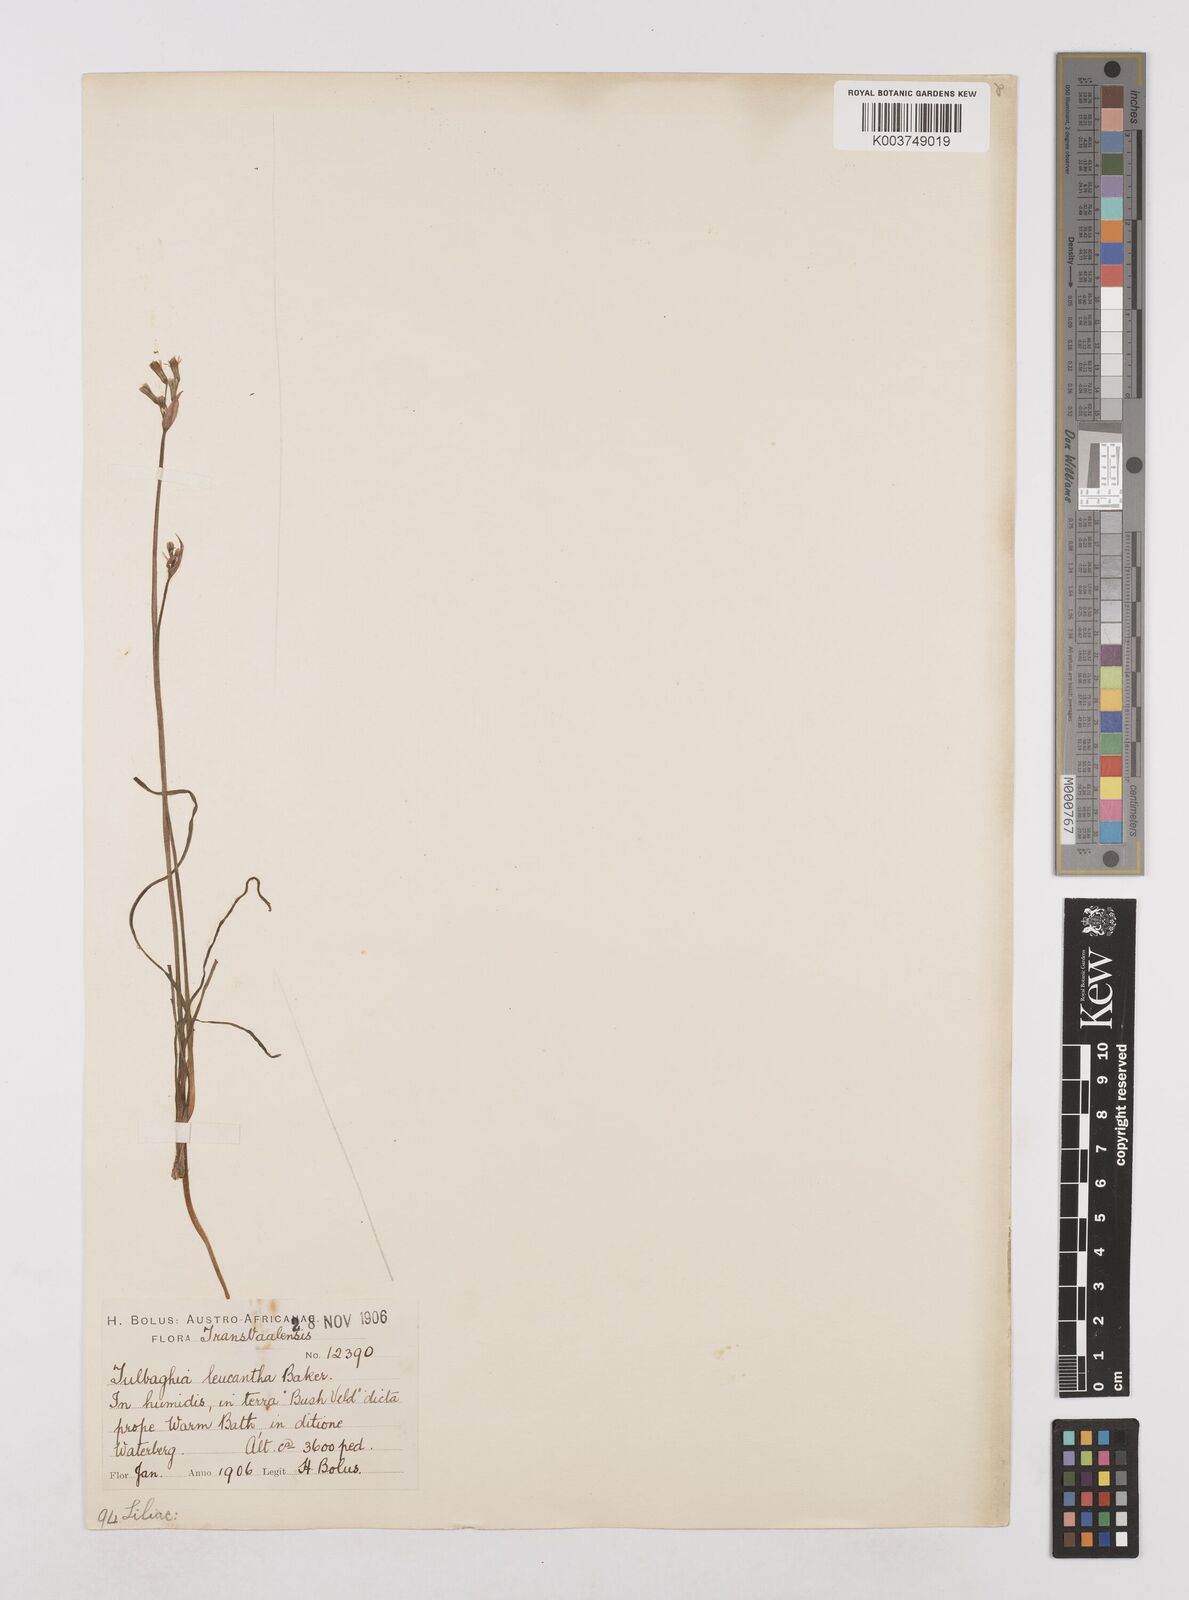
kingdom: Plantae
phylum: Tracheophyta
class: Liliopsida
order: Asparagales
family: Amaryllidaceae
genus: Tulbaghia
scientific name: Tulbaghia leucantha
